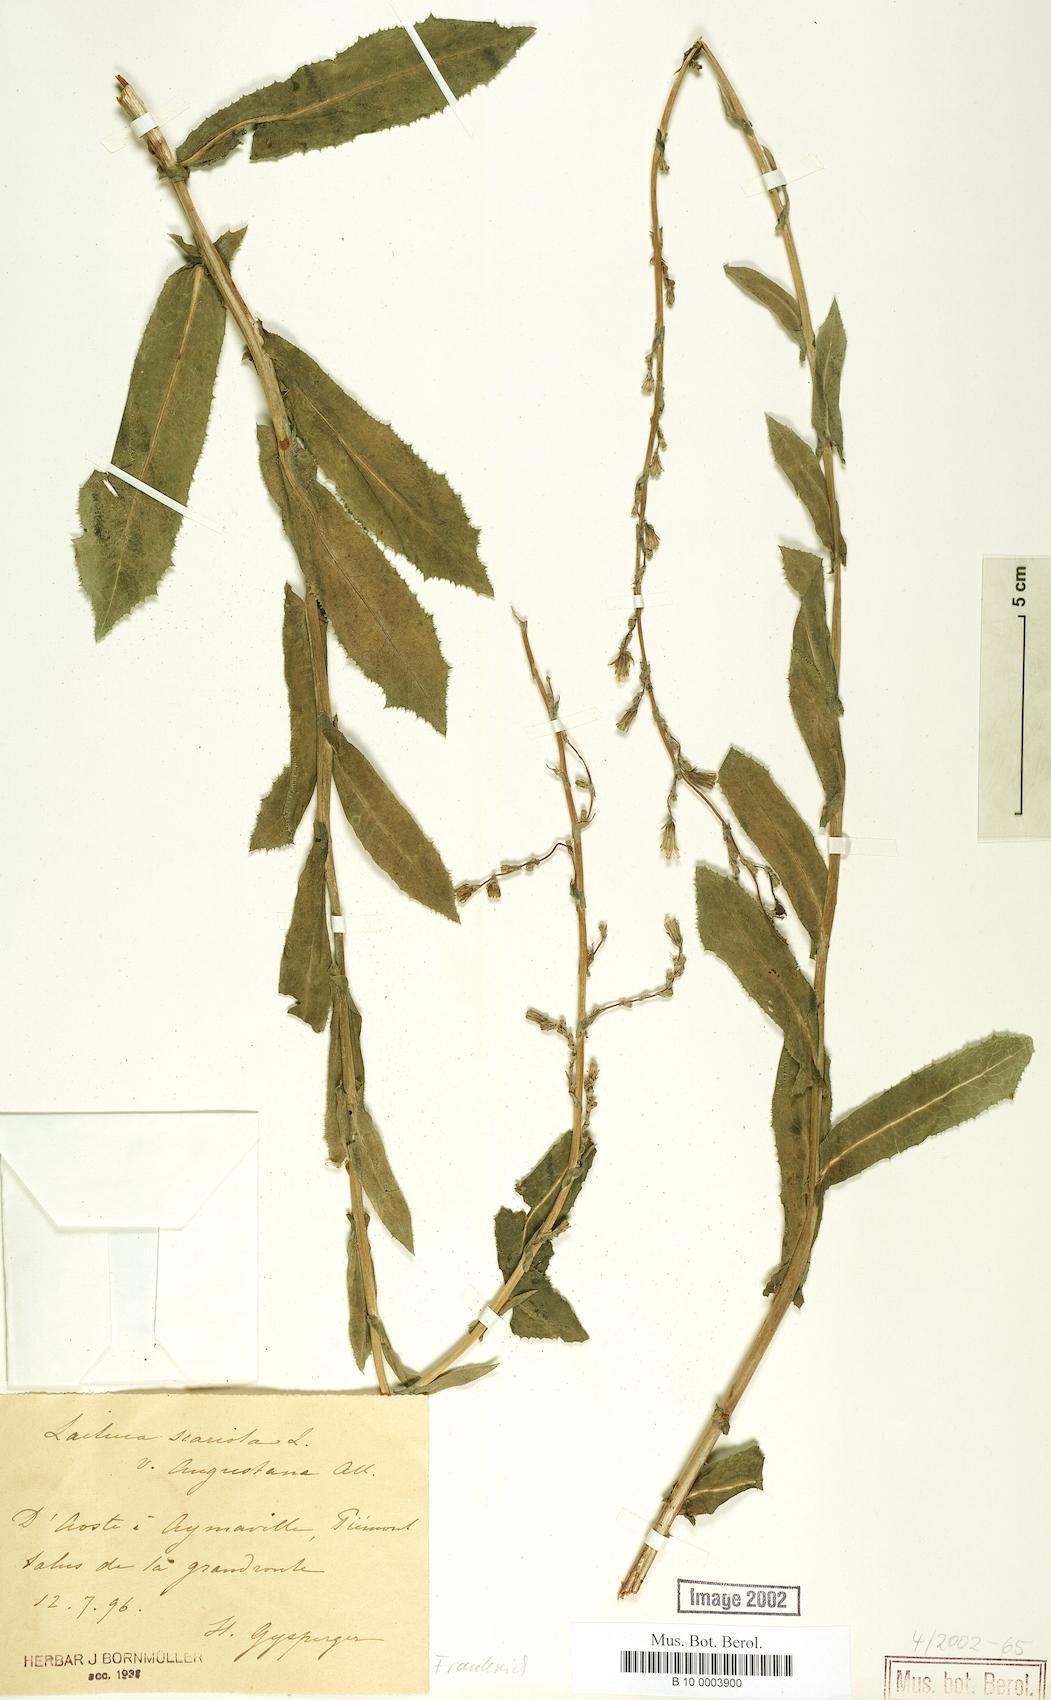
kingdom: Plantae
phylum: Tracheophyta
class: Magnoliopsida
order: Asterales
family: Asteraceae
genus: Lactuca
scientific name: Lactuca serriola
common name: Prickly lettuce
